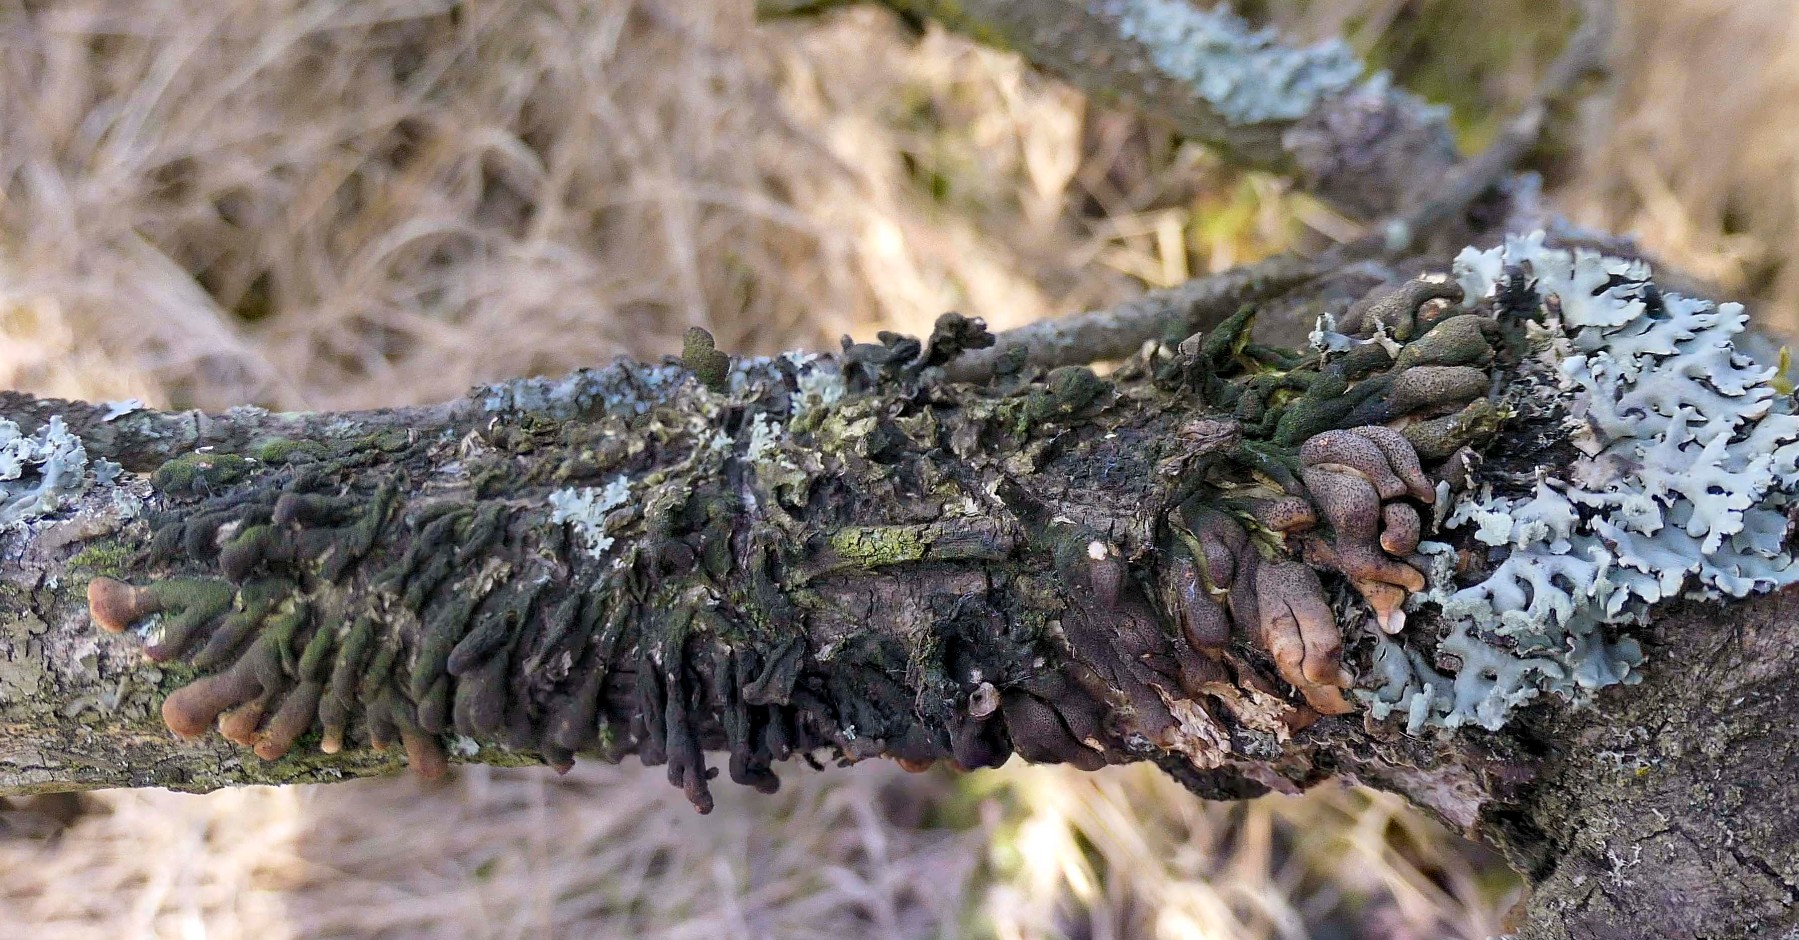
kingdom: Fungi
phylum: Ascomycota
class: Sordariomycetes
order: Hypocreales
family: Hypocreaceae
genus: Hypocreopsis
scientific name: Hypocreopsis lichenoides
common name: pilfinger
